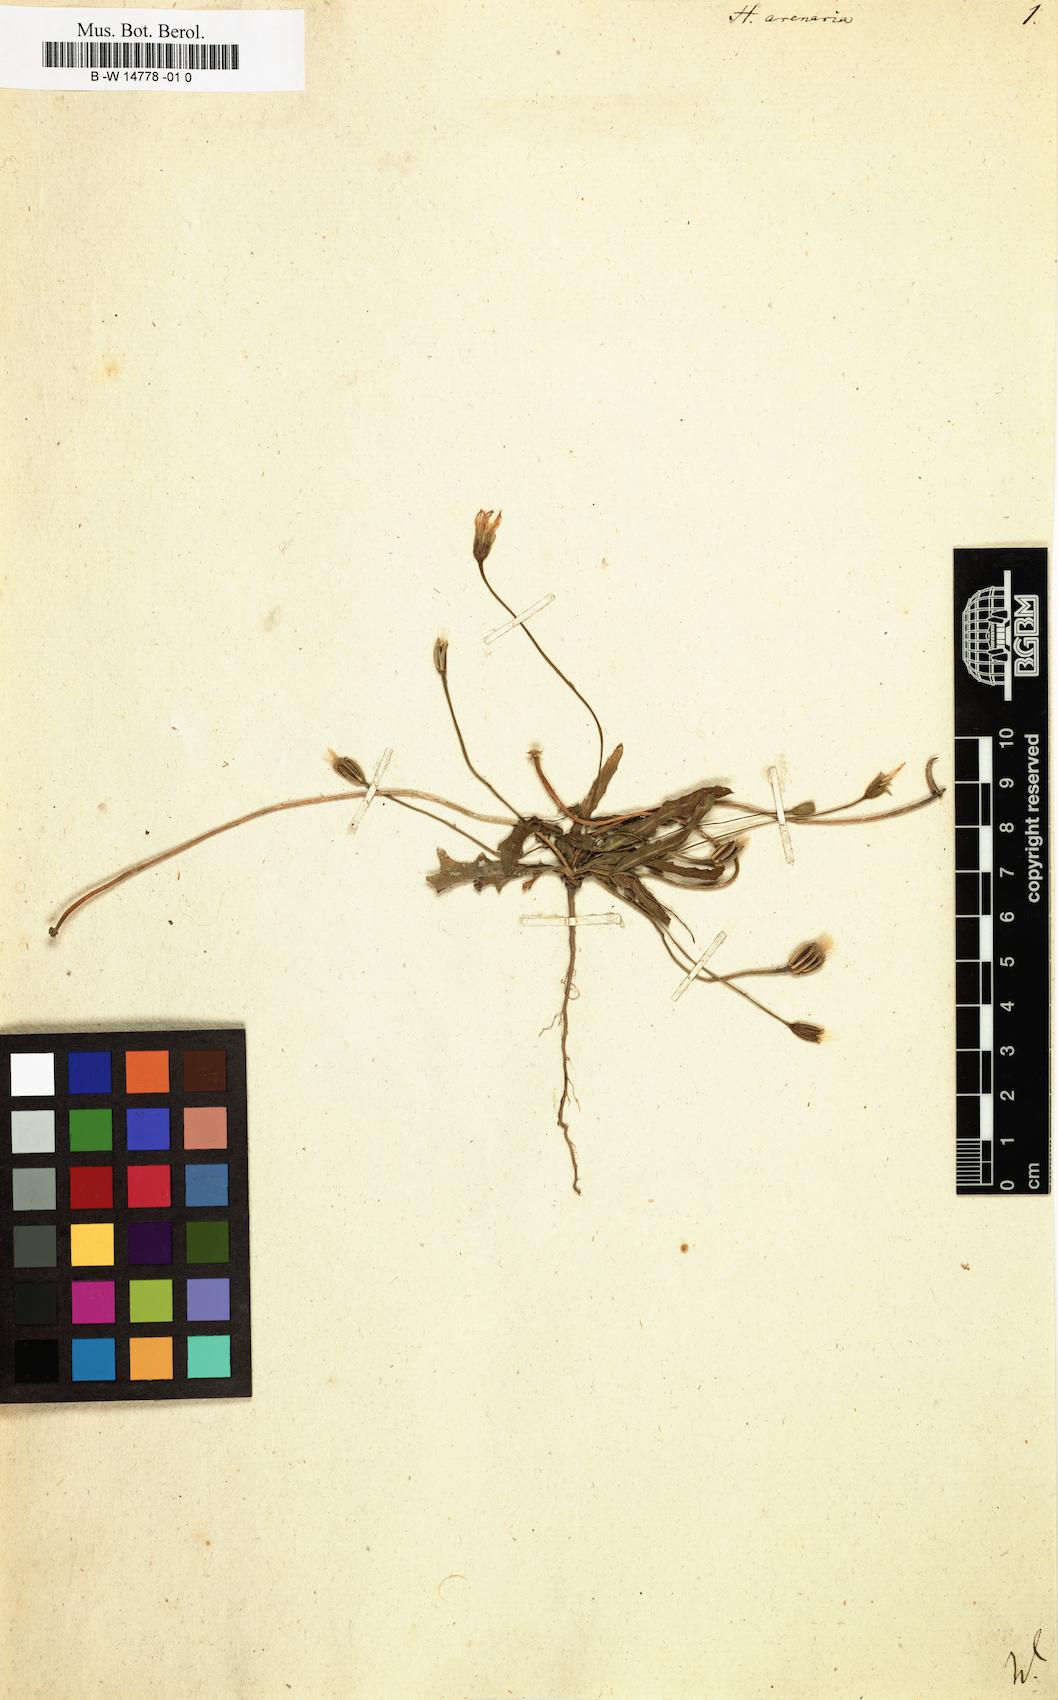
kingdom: Plantae
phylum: Tracheophyta
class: Magnoliopsida
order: Asterales
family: Asteraceae
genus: Hedypnois
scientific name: Hedypnois arenaria
